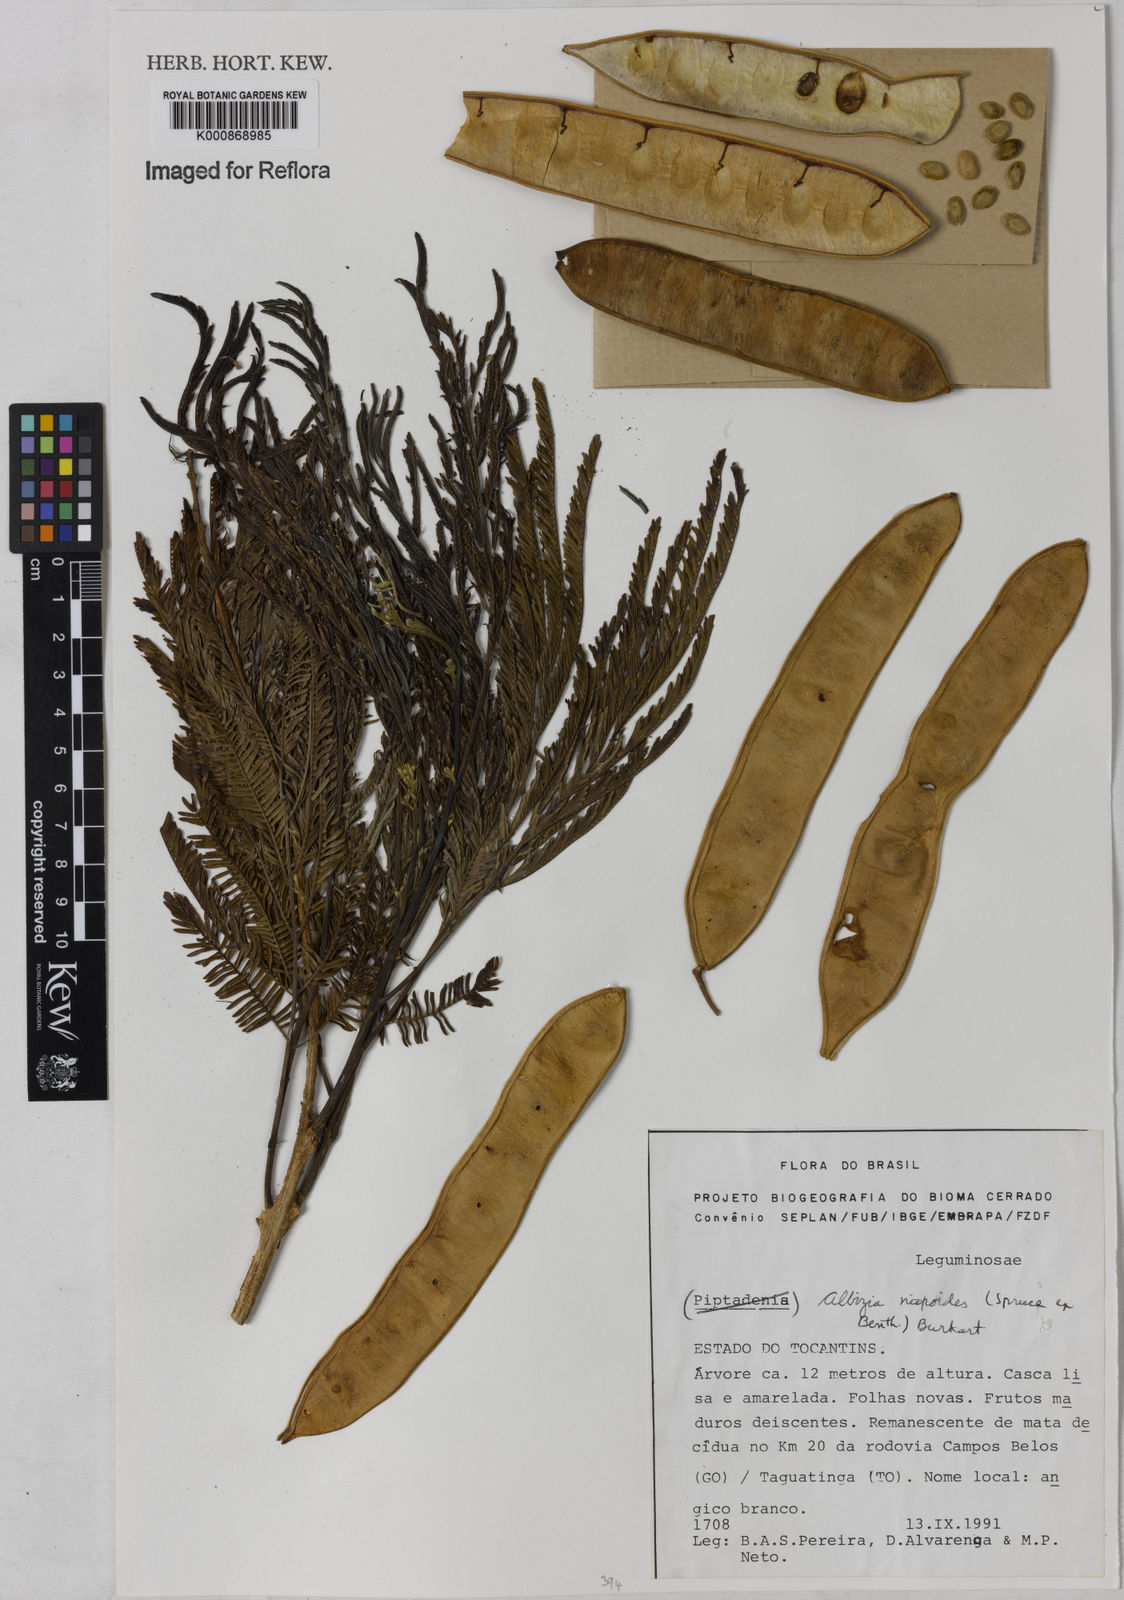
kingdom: Plantae
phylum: Tracheophyta
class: Magnoliopsida
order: Fabales
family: Fabaceae
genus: Albizia
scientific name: Albizia niopoides
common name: Silk tree
